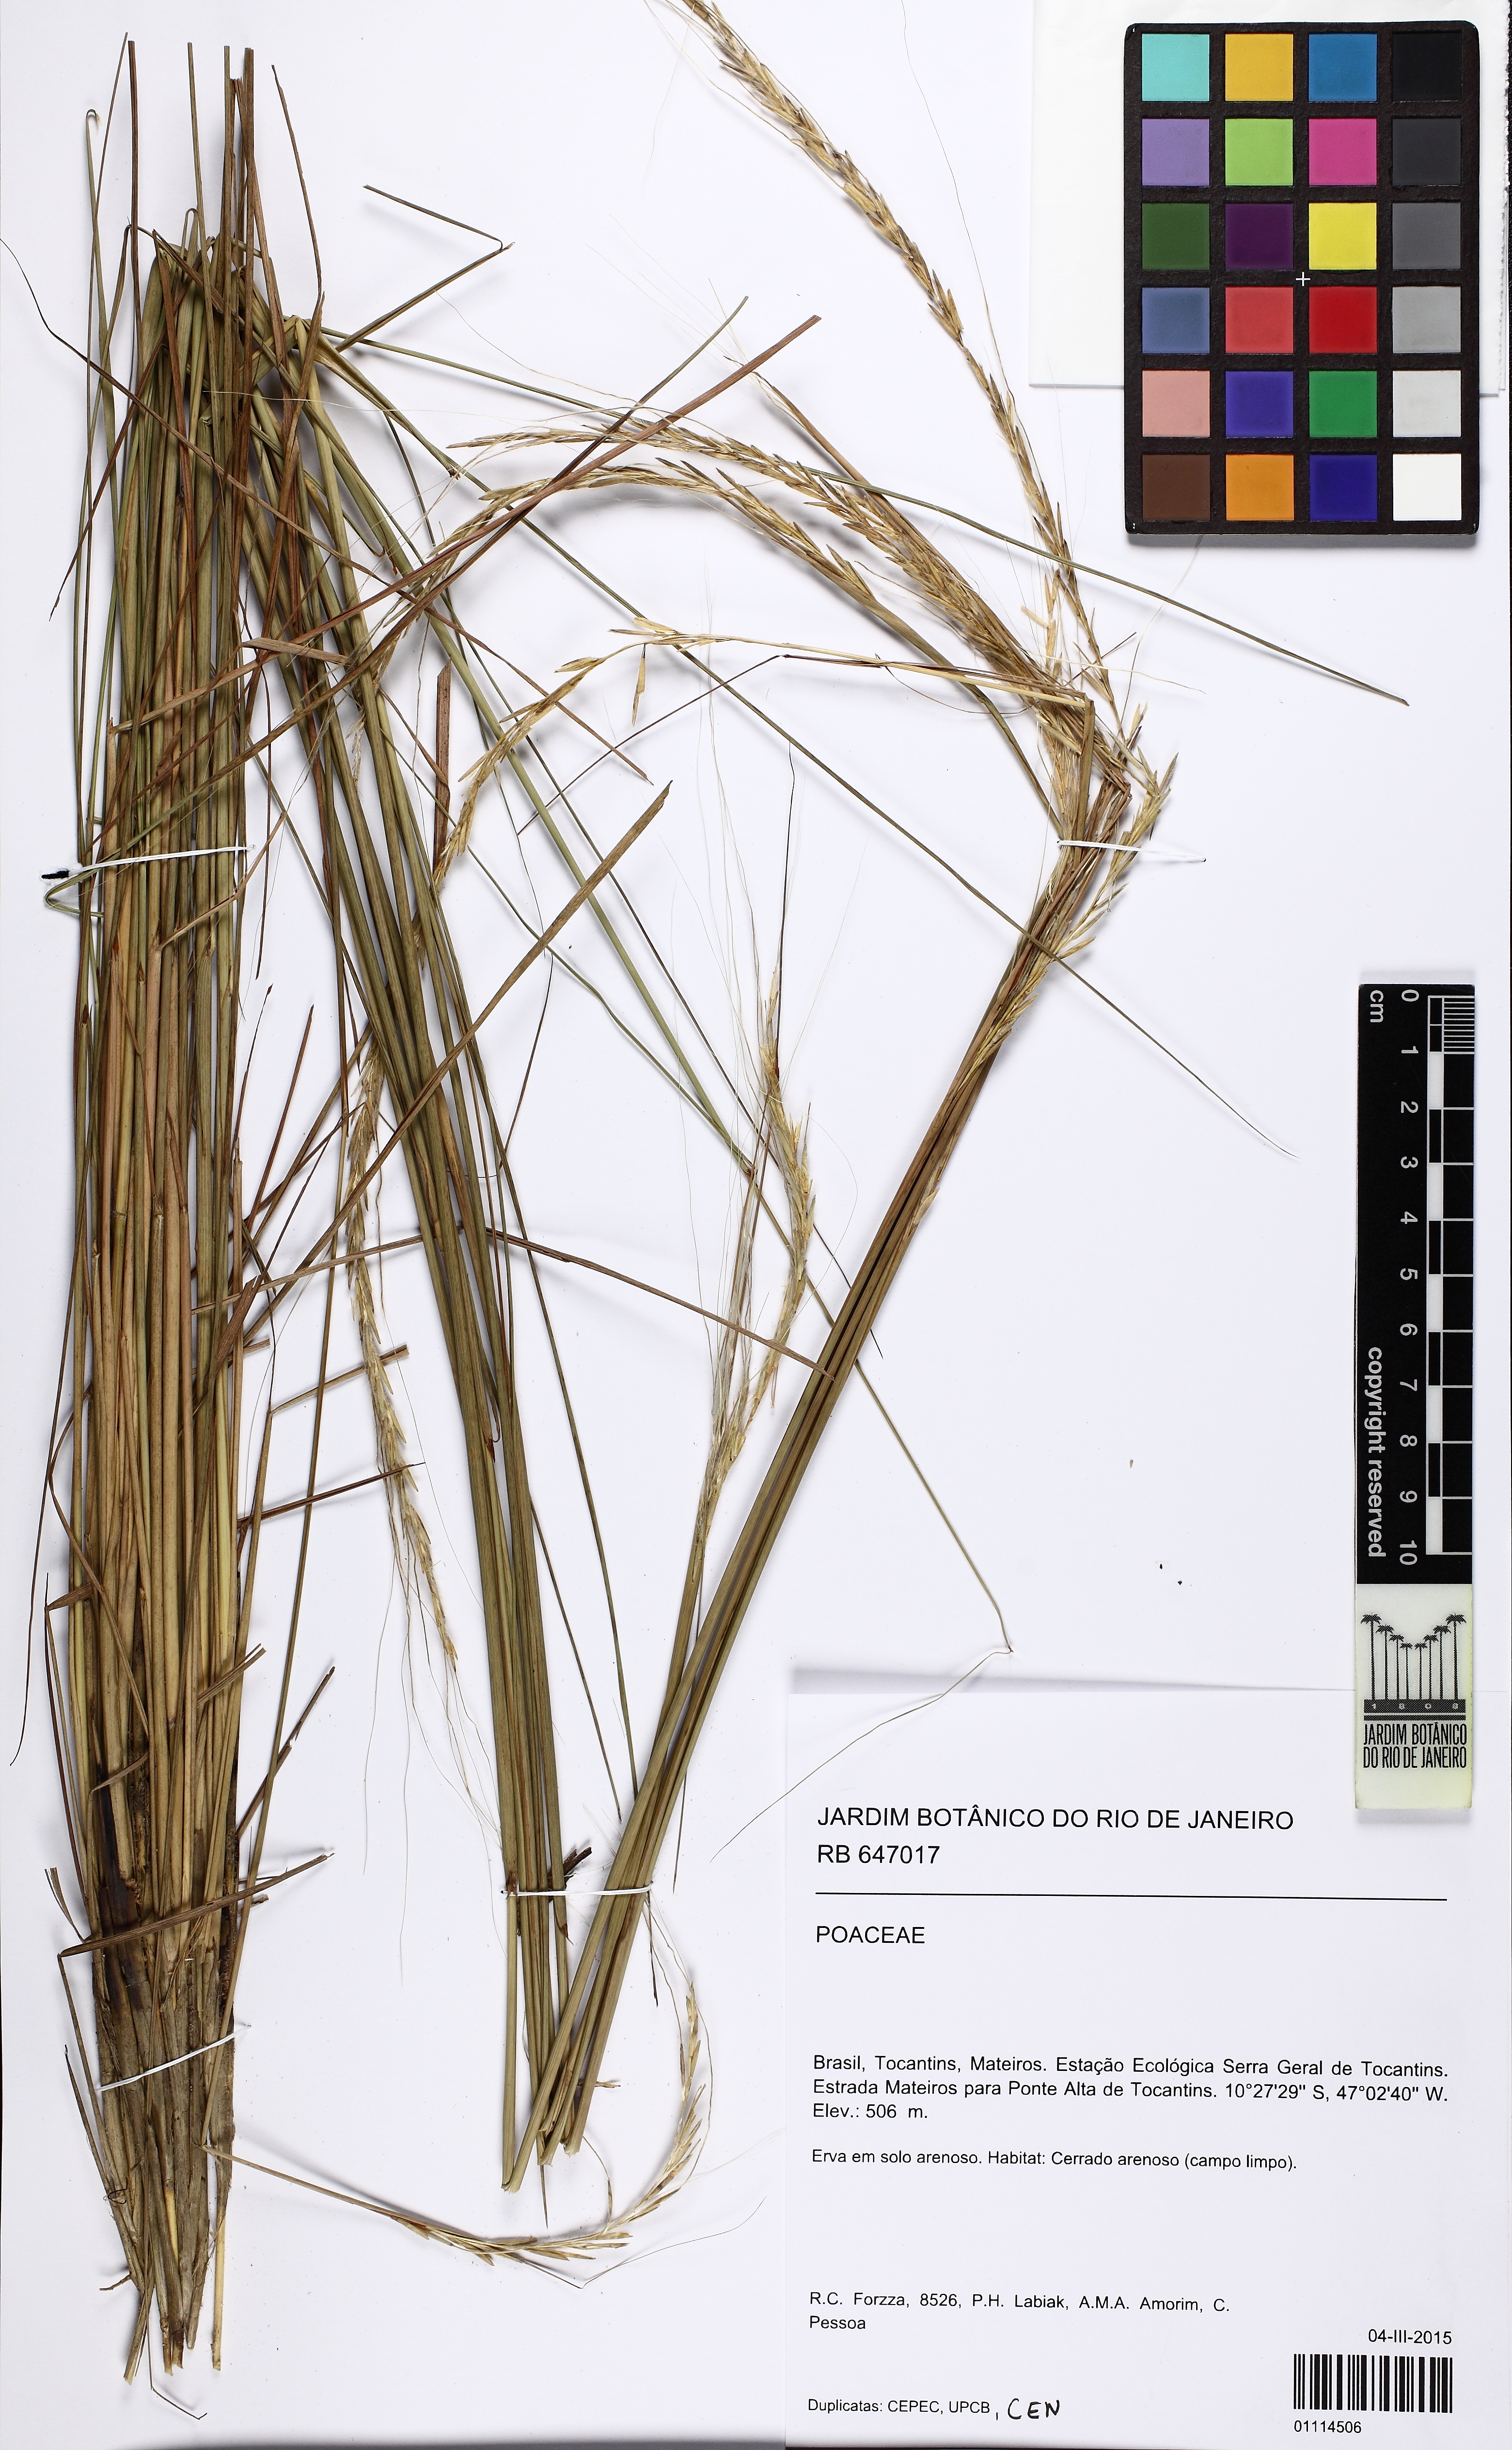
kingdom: Plantae
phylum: Tracheophyta
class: Liliopsida
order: Poales
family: Poaceae
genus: Trachypogon
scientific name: Trachypogon
